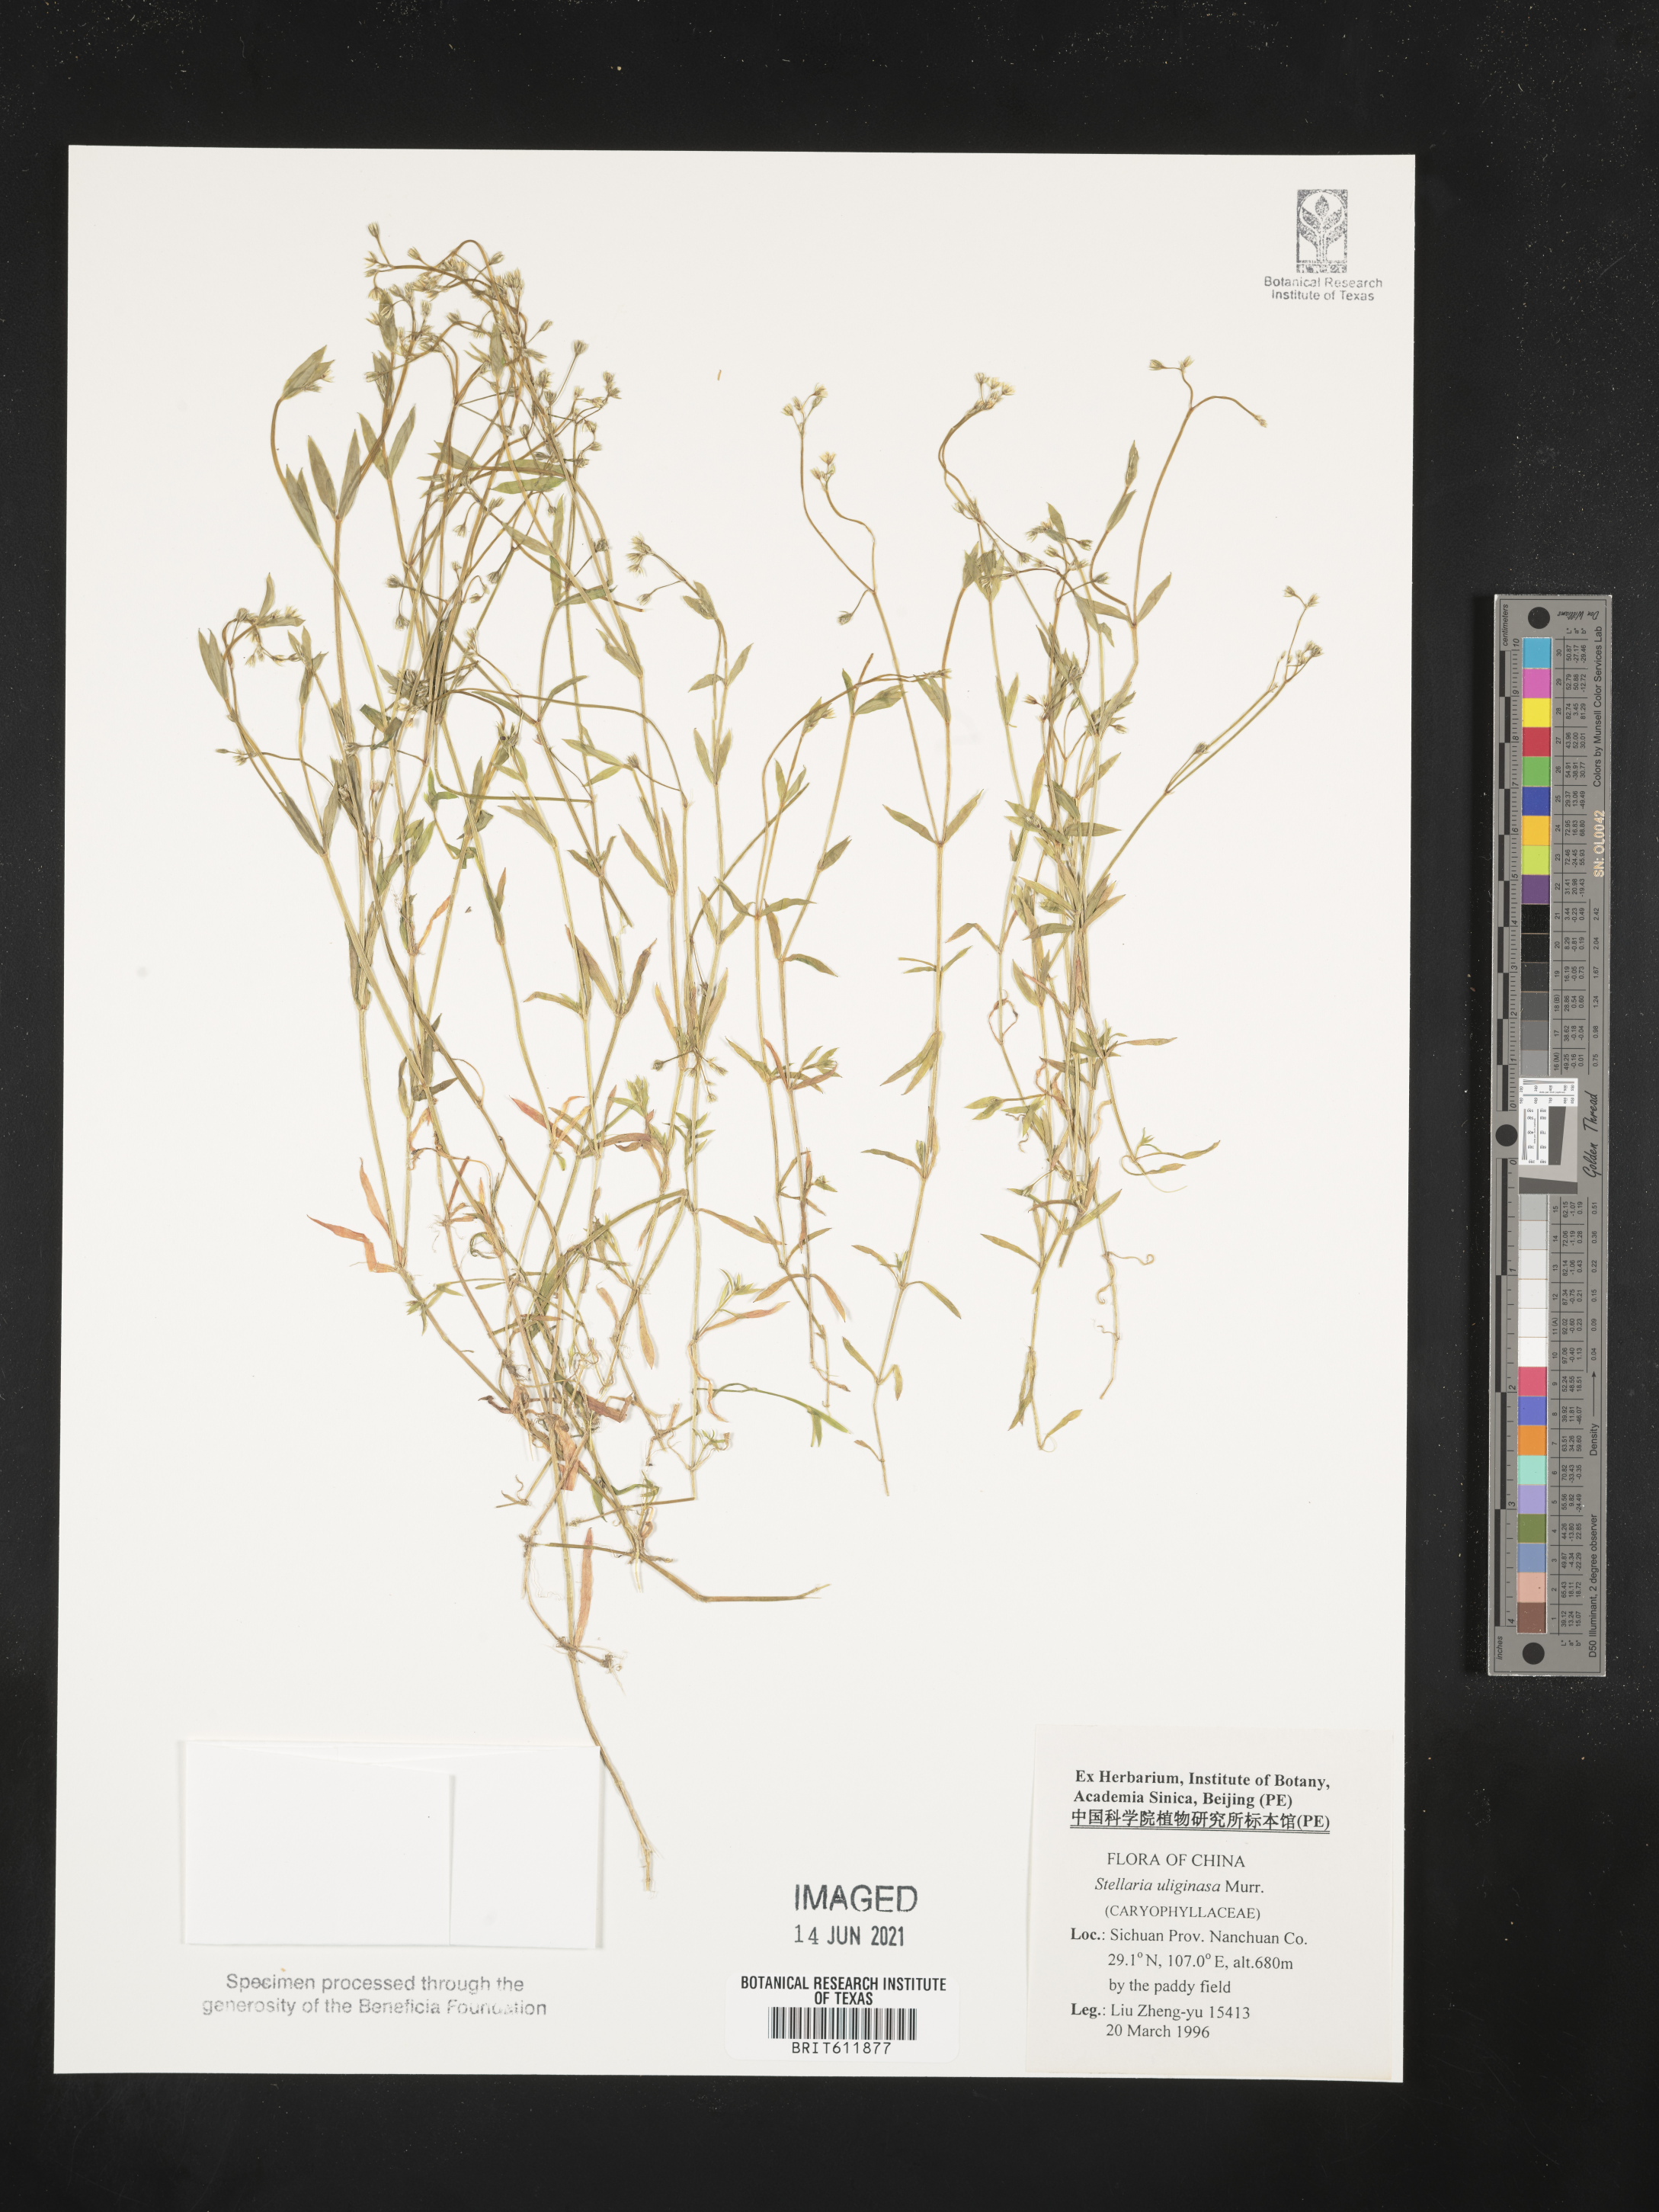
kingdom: Plantae
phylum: Tracheophyta
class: Magnoliopsida
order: Caryophyllales
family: Caryophyllaceae
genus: Stellaria
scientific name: Stellaria alsine
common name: Bog stitchwort
